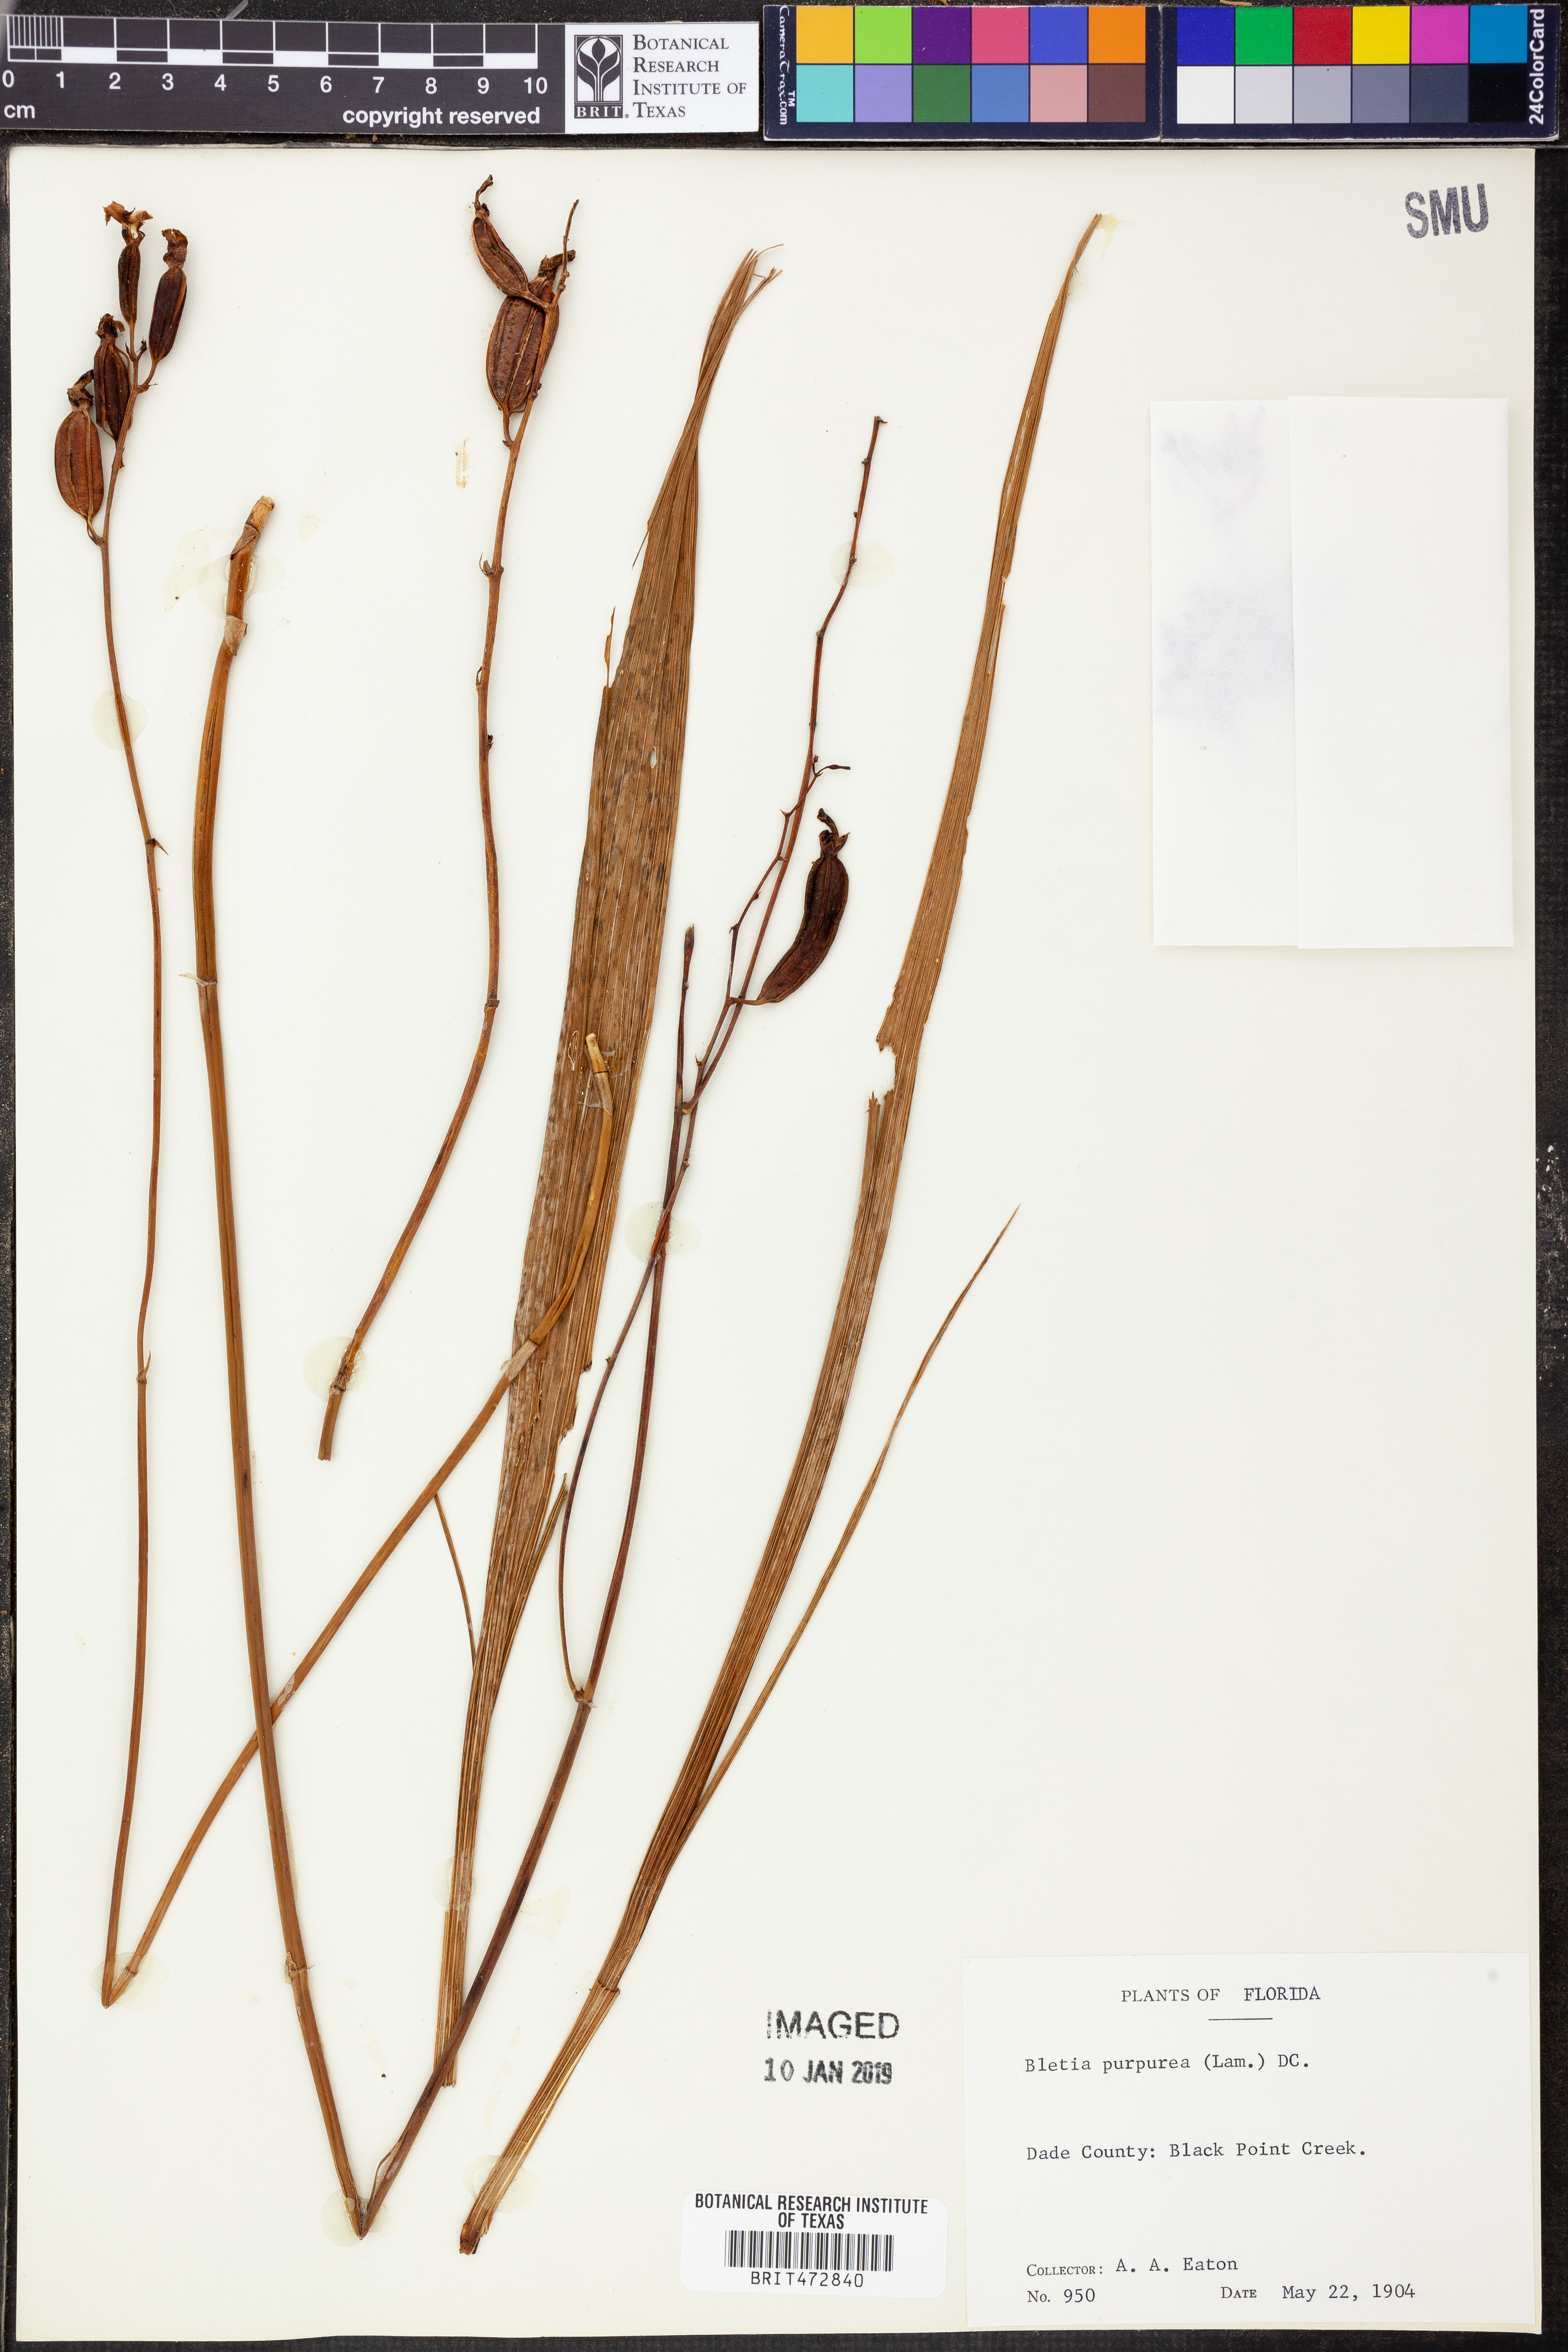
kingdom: Plantae
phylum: Tracheophyta
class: Liliopsida
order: Asparagales
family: Orchidaceae
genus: Bletia
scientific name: Bletia purpurea
